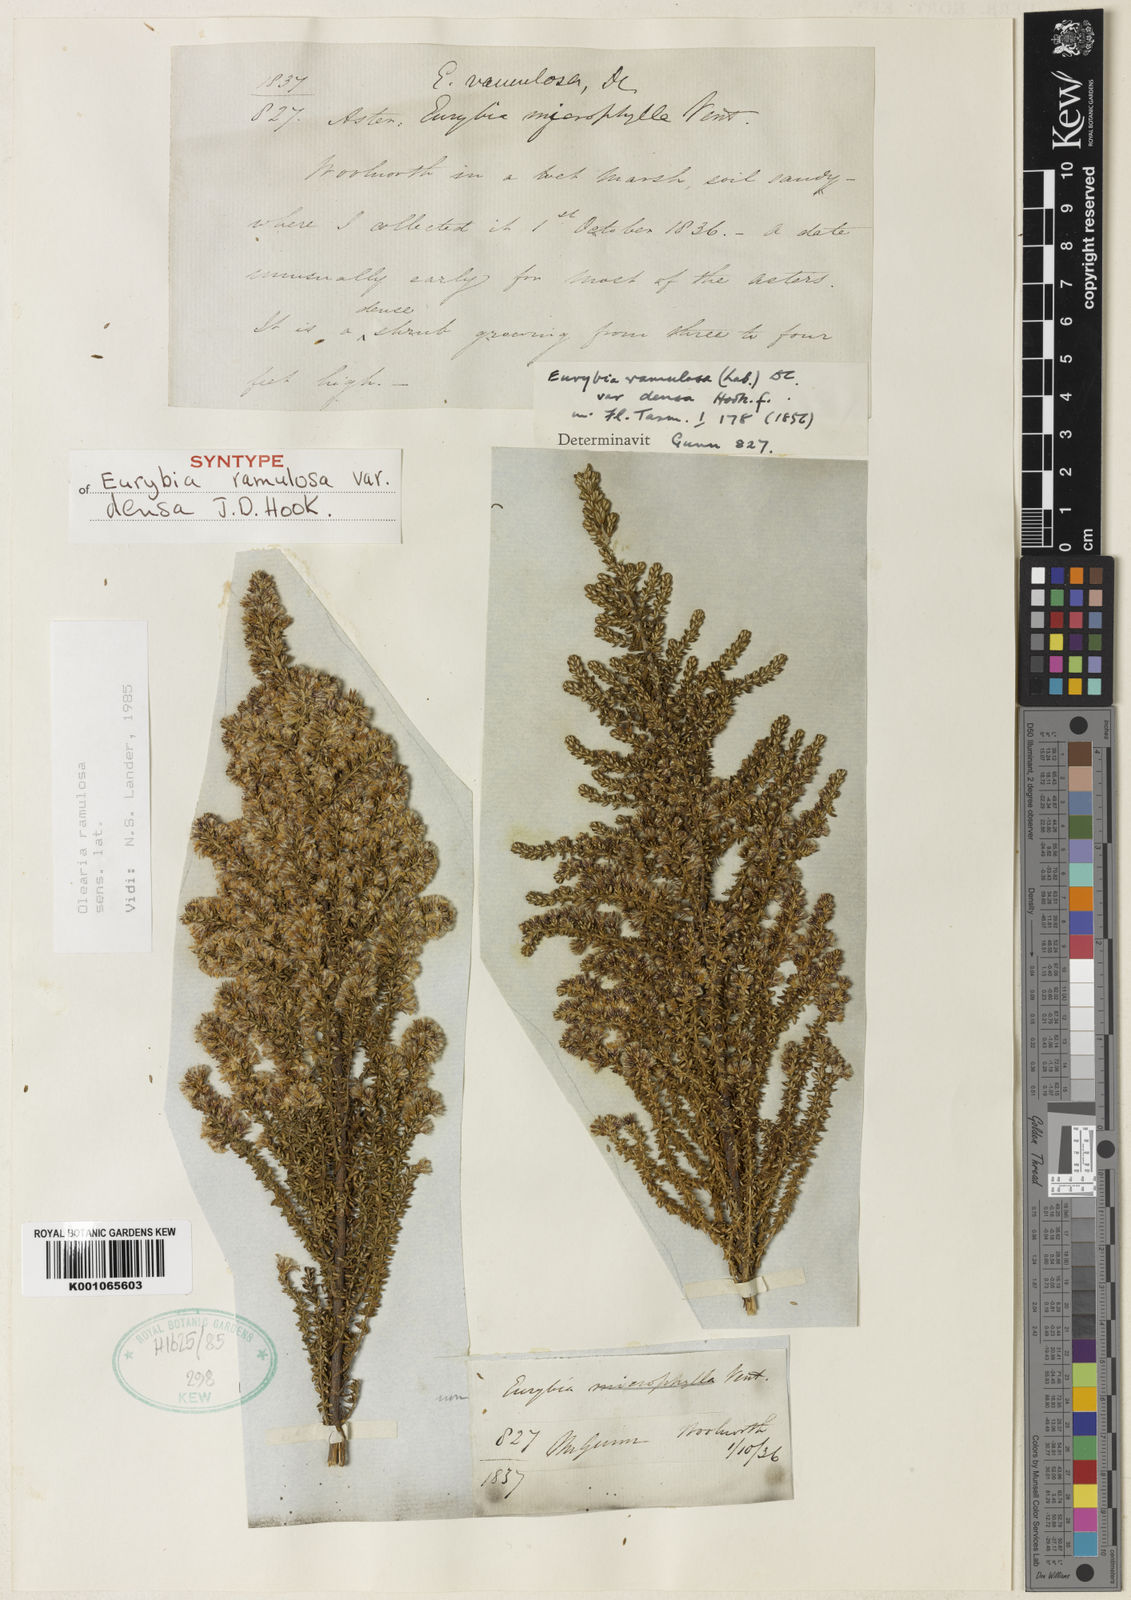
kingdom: Plantae
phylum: Tracheophyta
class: Magnoliopsida
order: Asterales
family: Asteraceae
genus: Olearia
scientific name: Olearia ramulosa
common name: Twiggy daisybush
